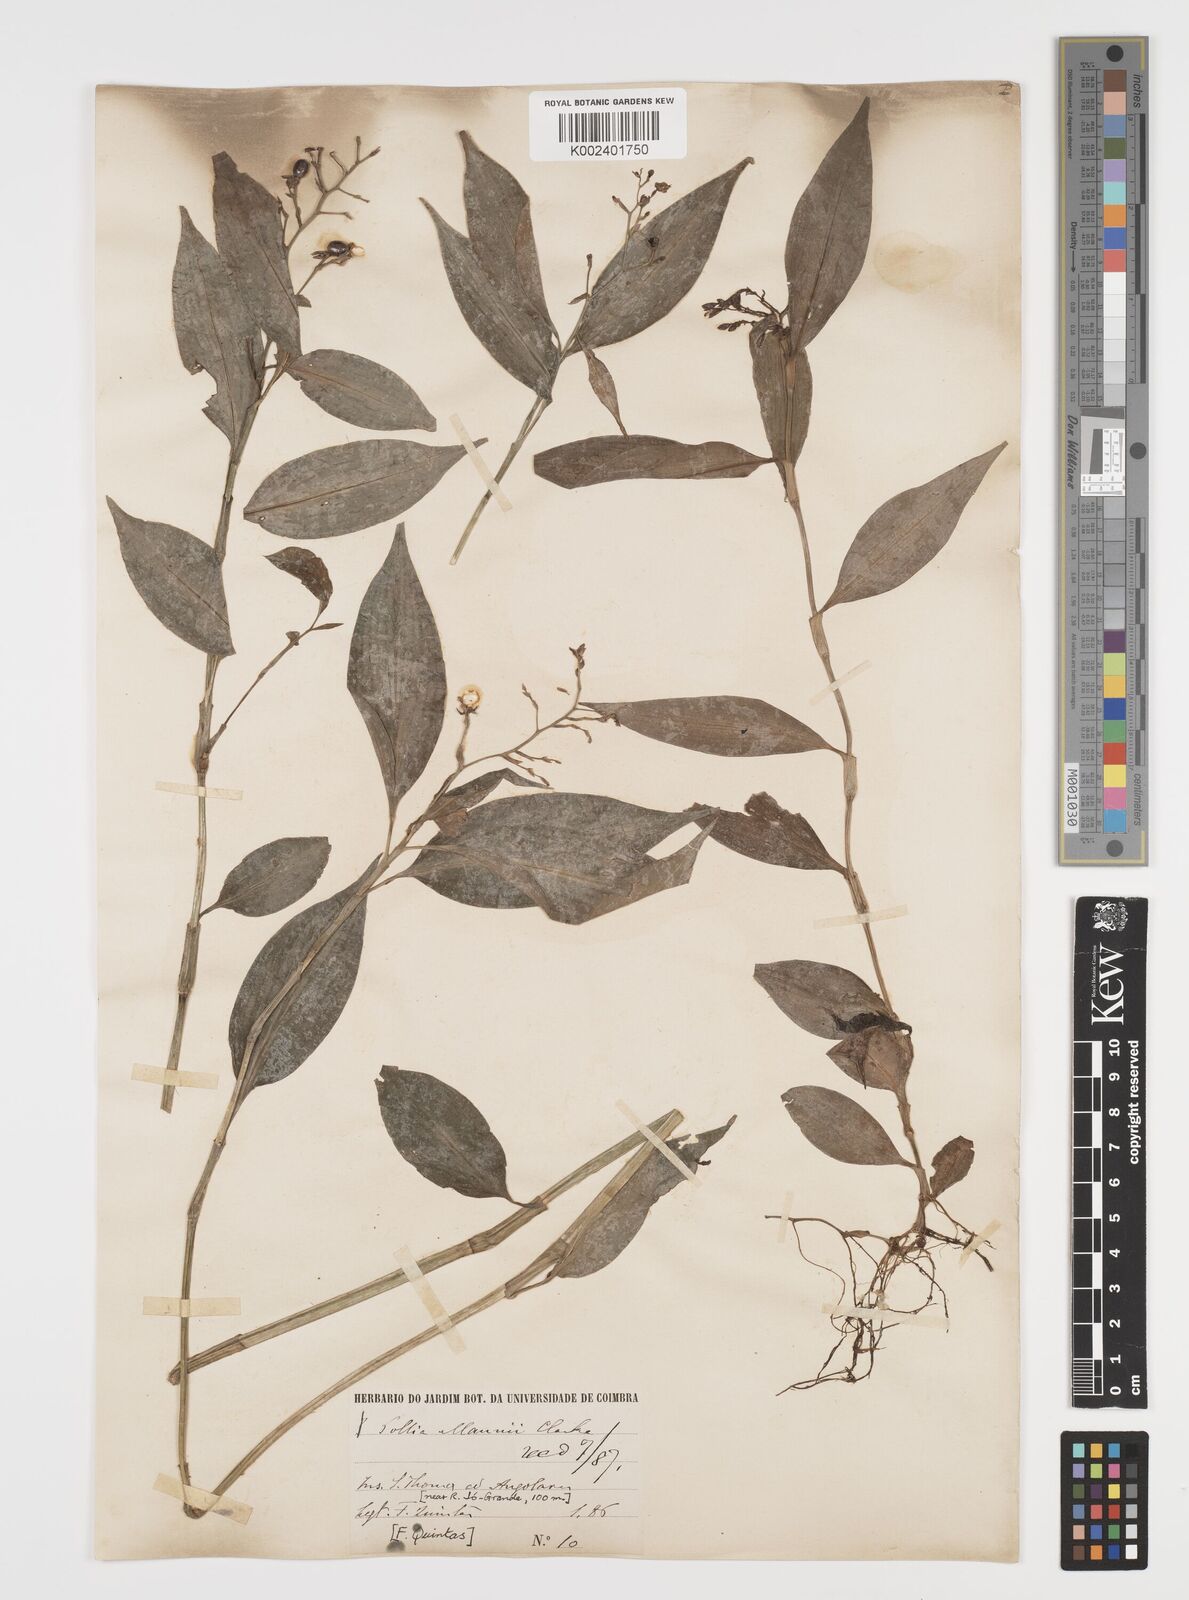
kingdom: Plantae
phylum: Tracheophyta
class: Liliopsida
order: Commelinales
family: Commelinaceae
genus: Pollia
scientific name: Pollia mannii
